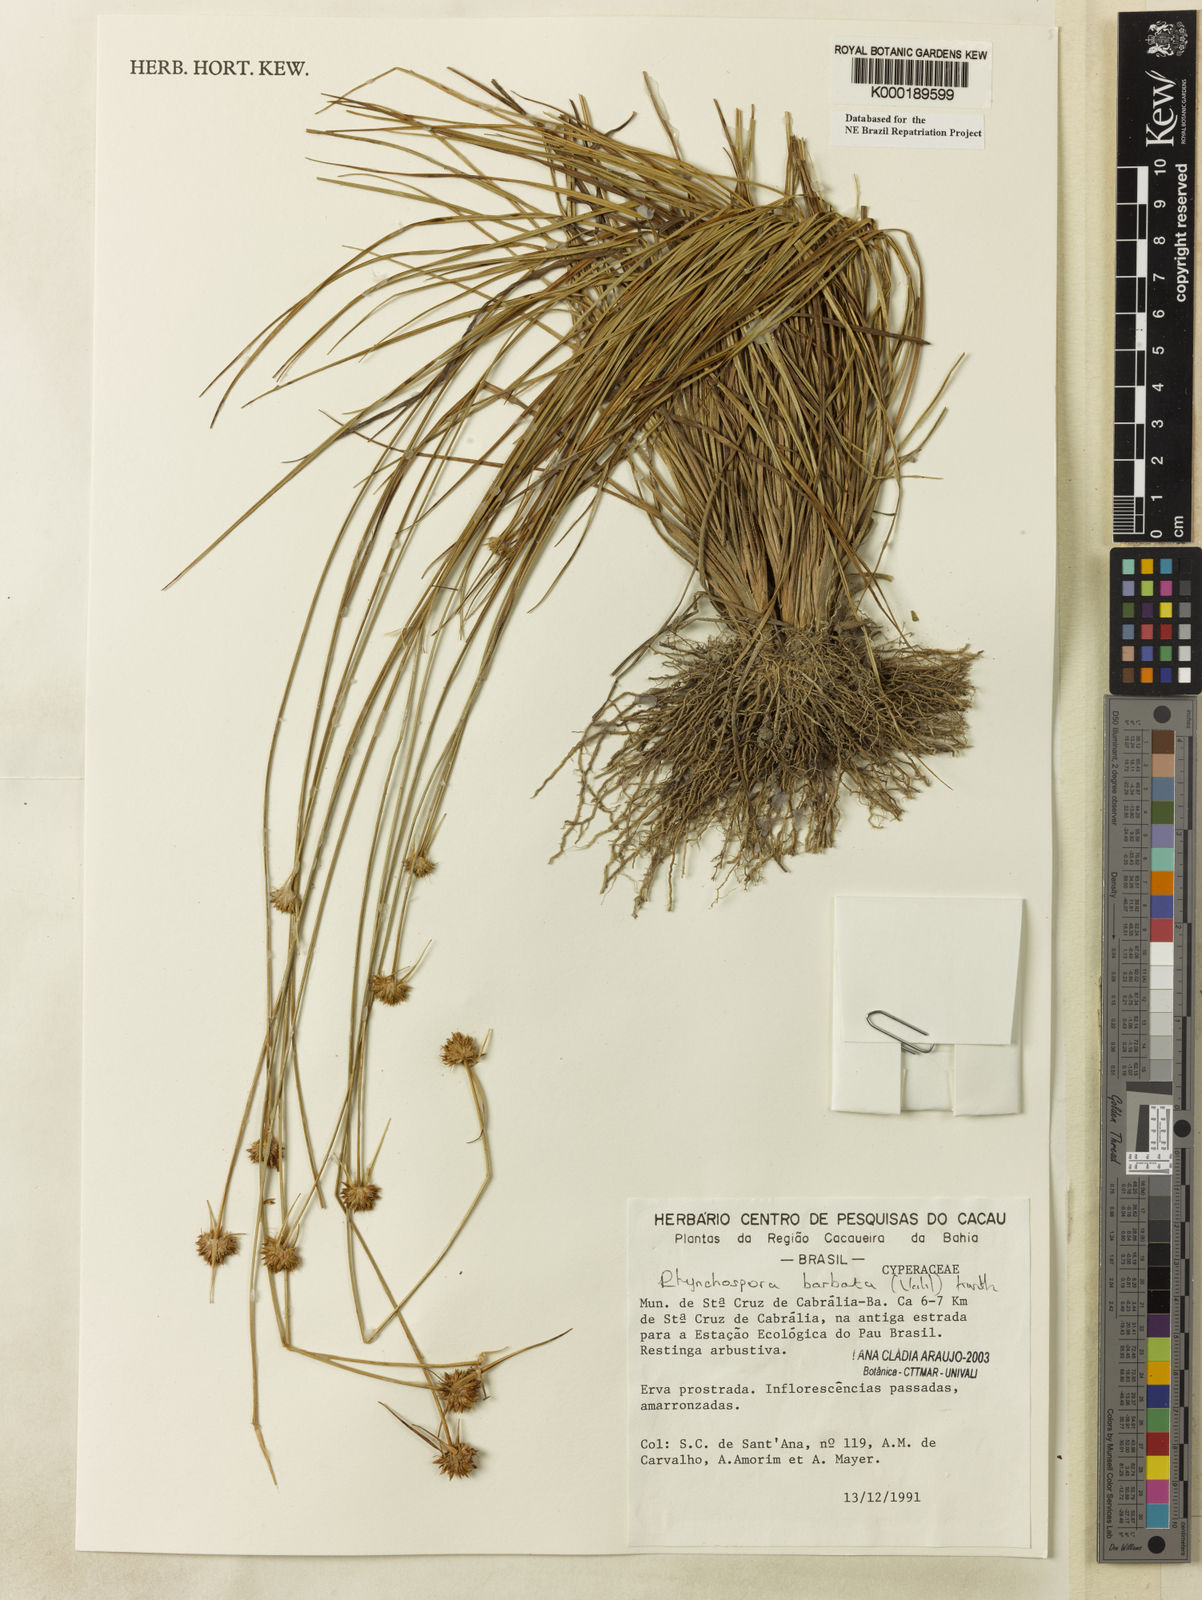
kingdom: Plantae
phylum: Tracheophyta
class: Liliopsida
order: Poales
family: Cyperaceae
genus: Rhynchospora
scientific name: Rhynchospora barbata
